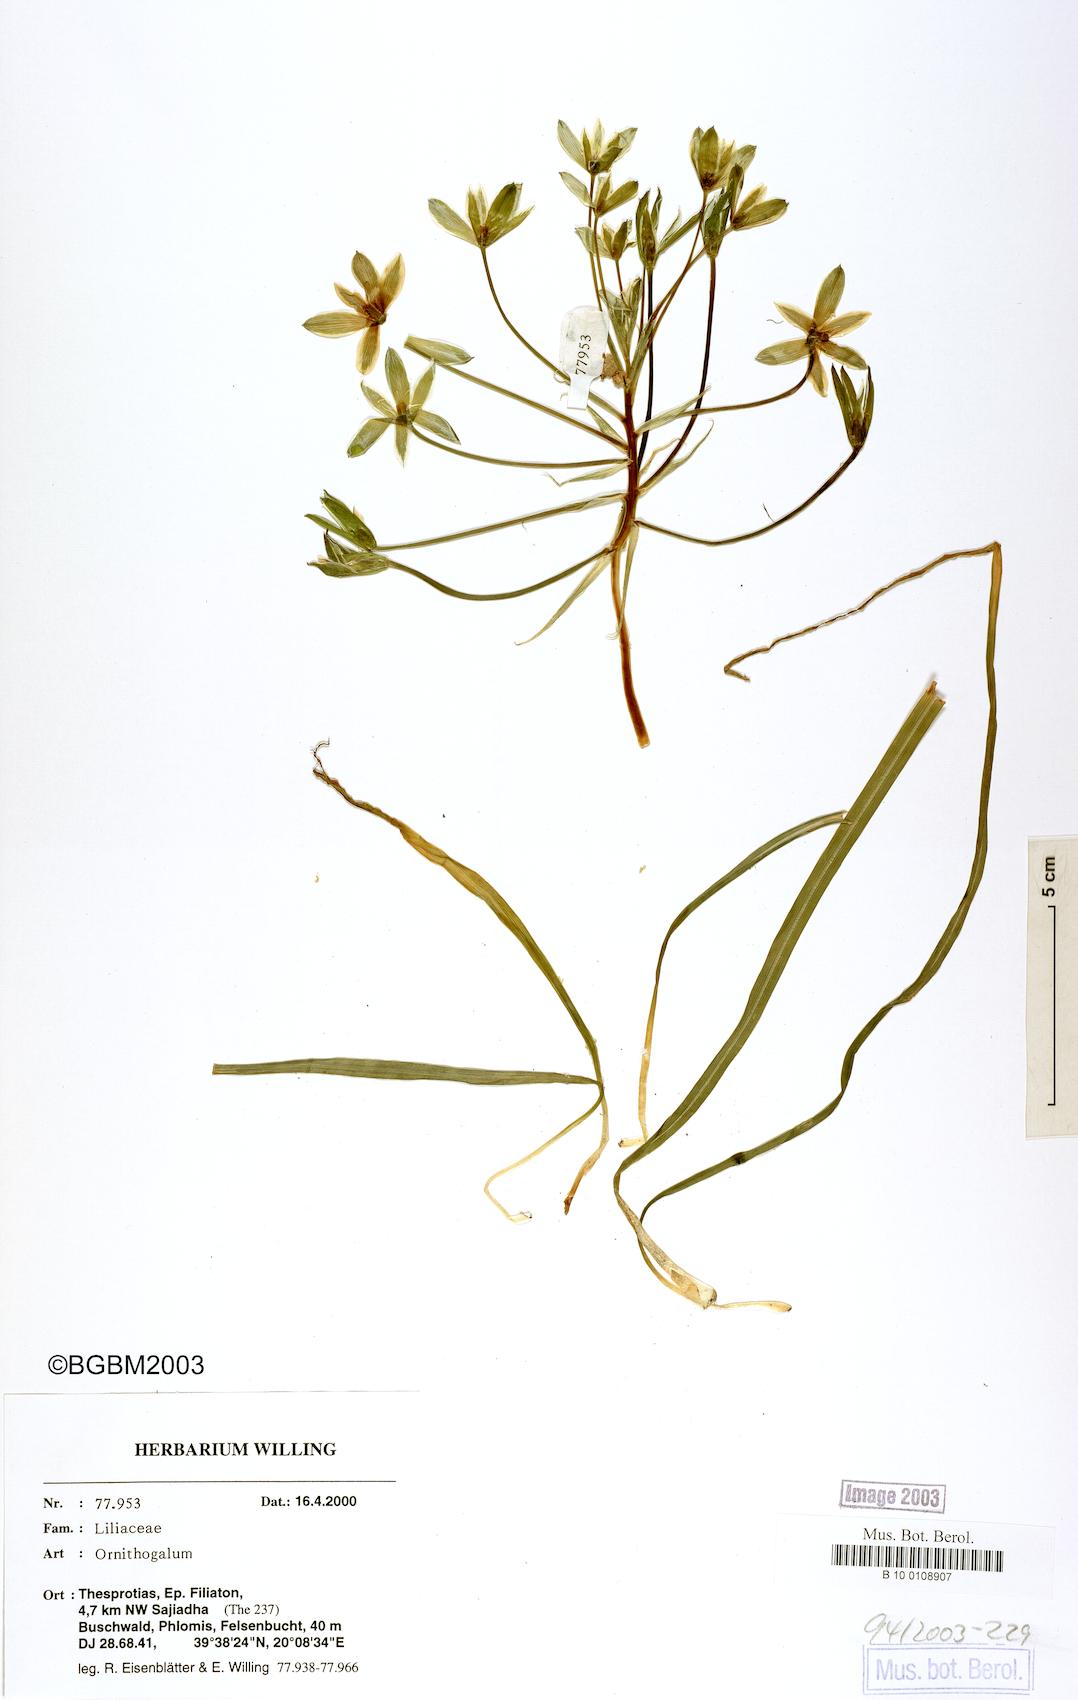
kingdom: Plantae
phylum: Tracheophyta
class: Liliopsida
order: Asparagales
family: Asparagaceae
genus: Ornithogalum
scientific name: Ornithogalum
